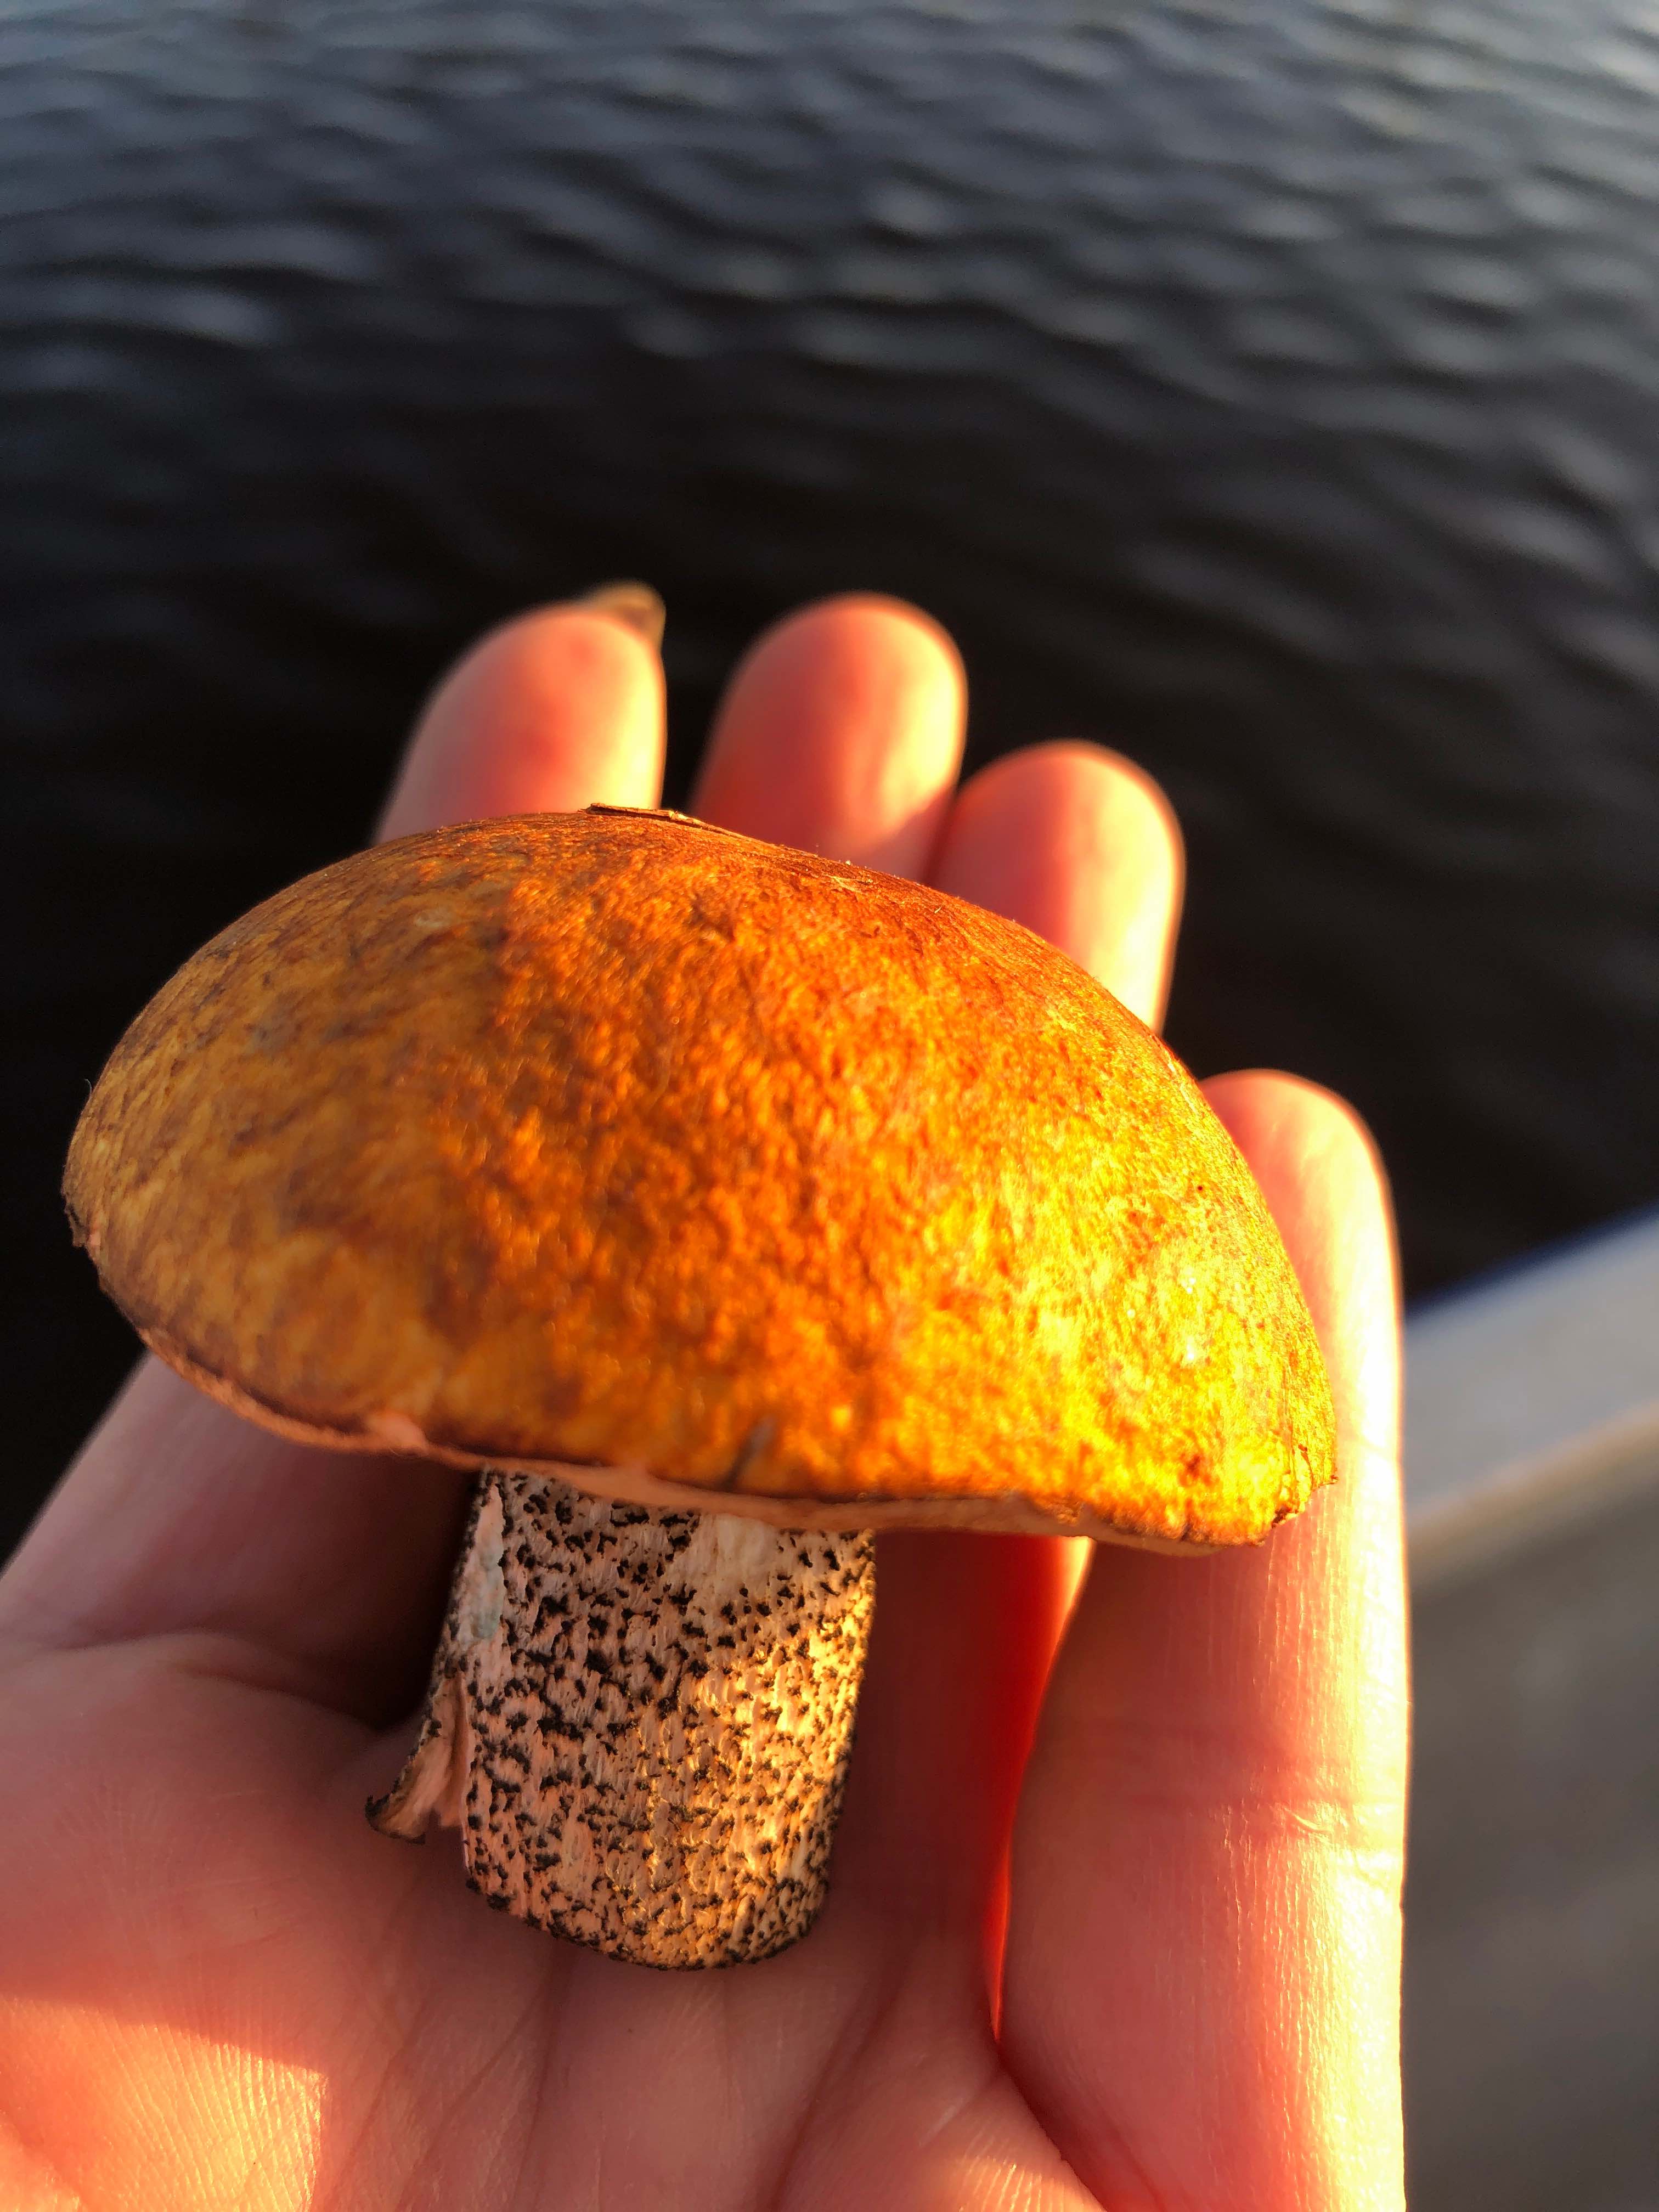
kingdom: Fungi
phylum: Basidiomycota
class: Agaricomycetes
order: Boletales
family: Boletaceae
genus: Leccinum
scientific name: Leccinum versipelle
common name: orange skælrørhat
